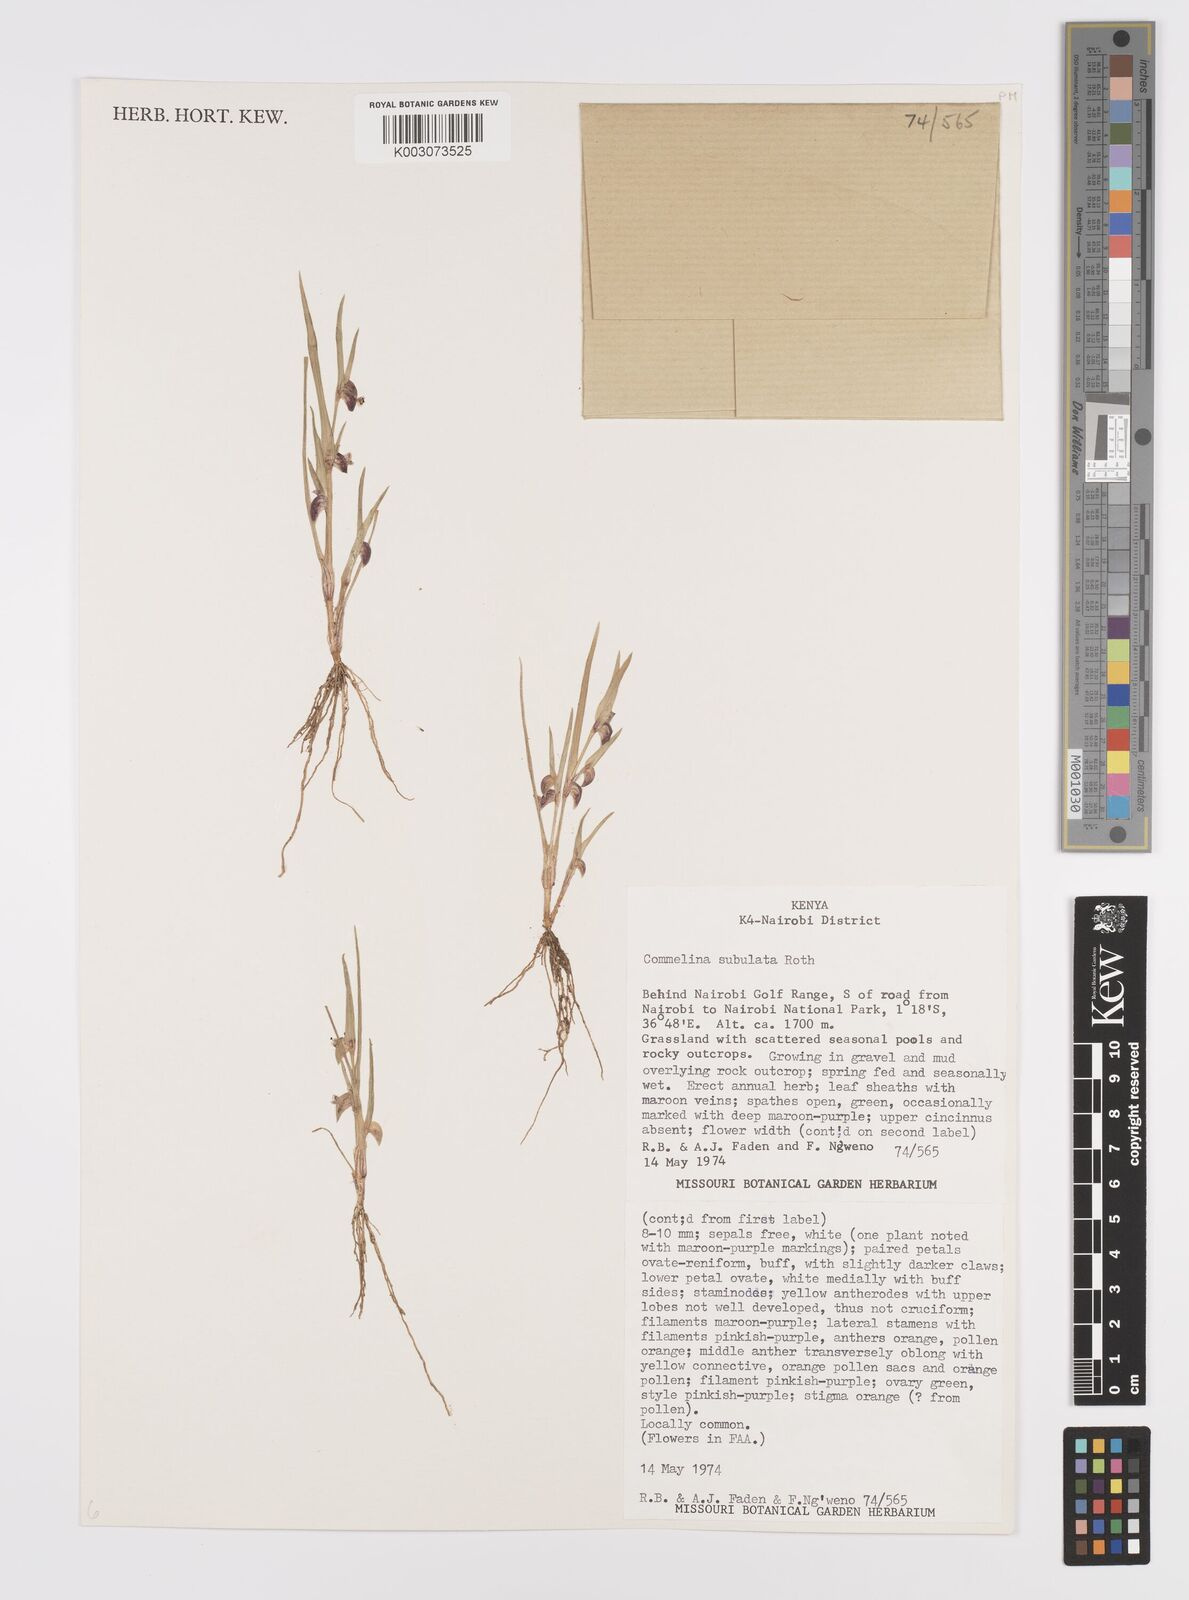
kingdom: Plantae
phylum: Tracheophyta
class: Liliopsida
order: Commelinales
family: Commelinaceae
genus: Commelina
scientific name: Commelina subulata
